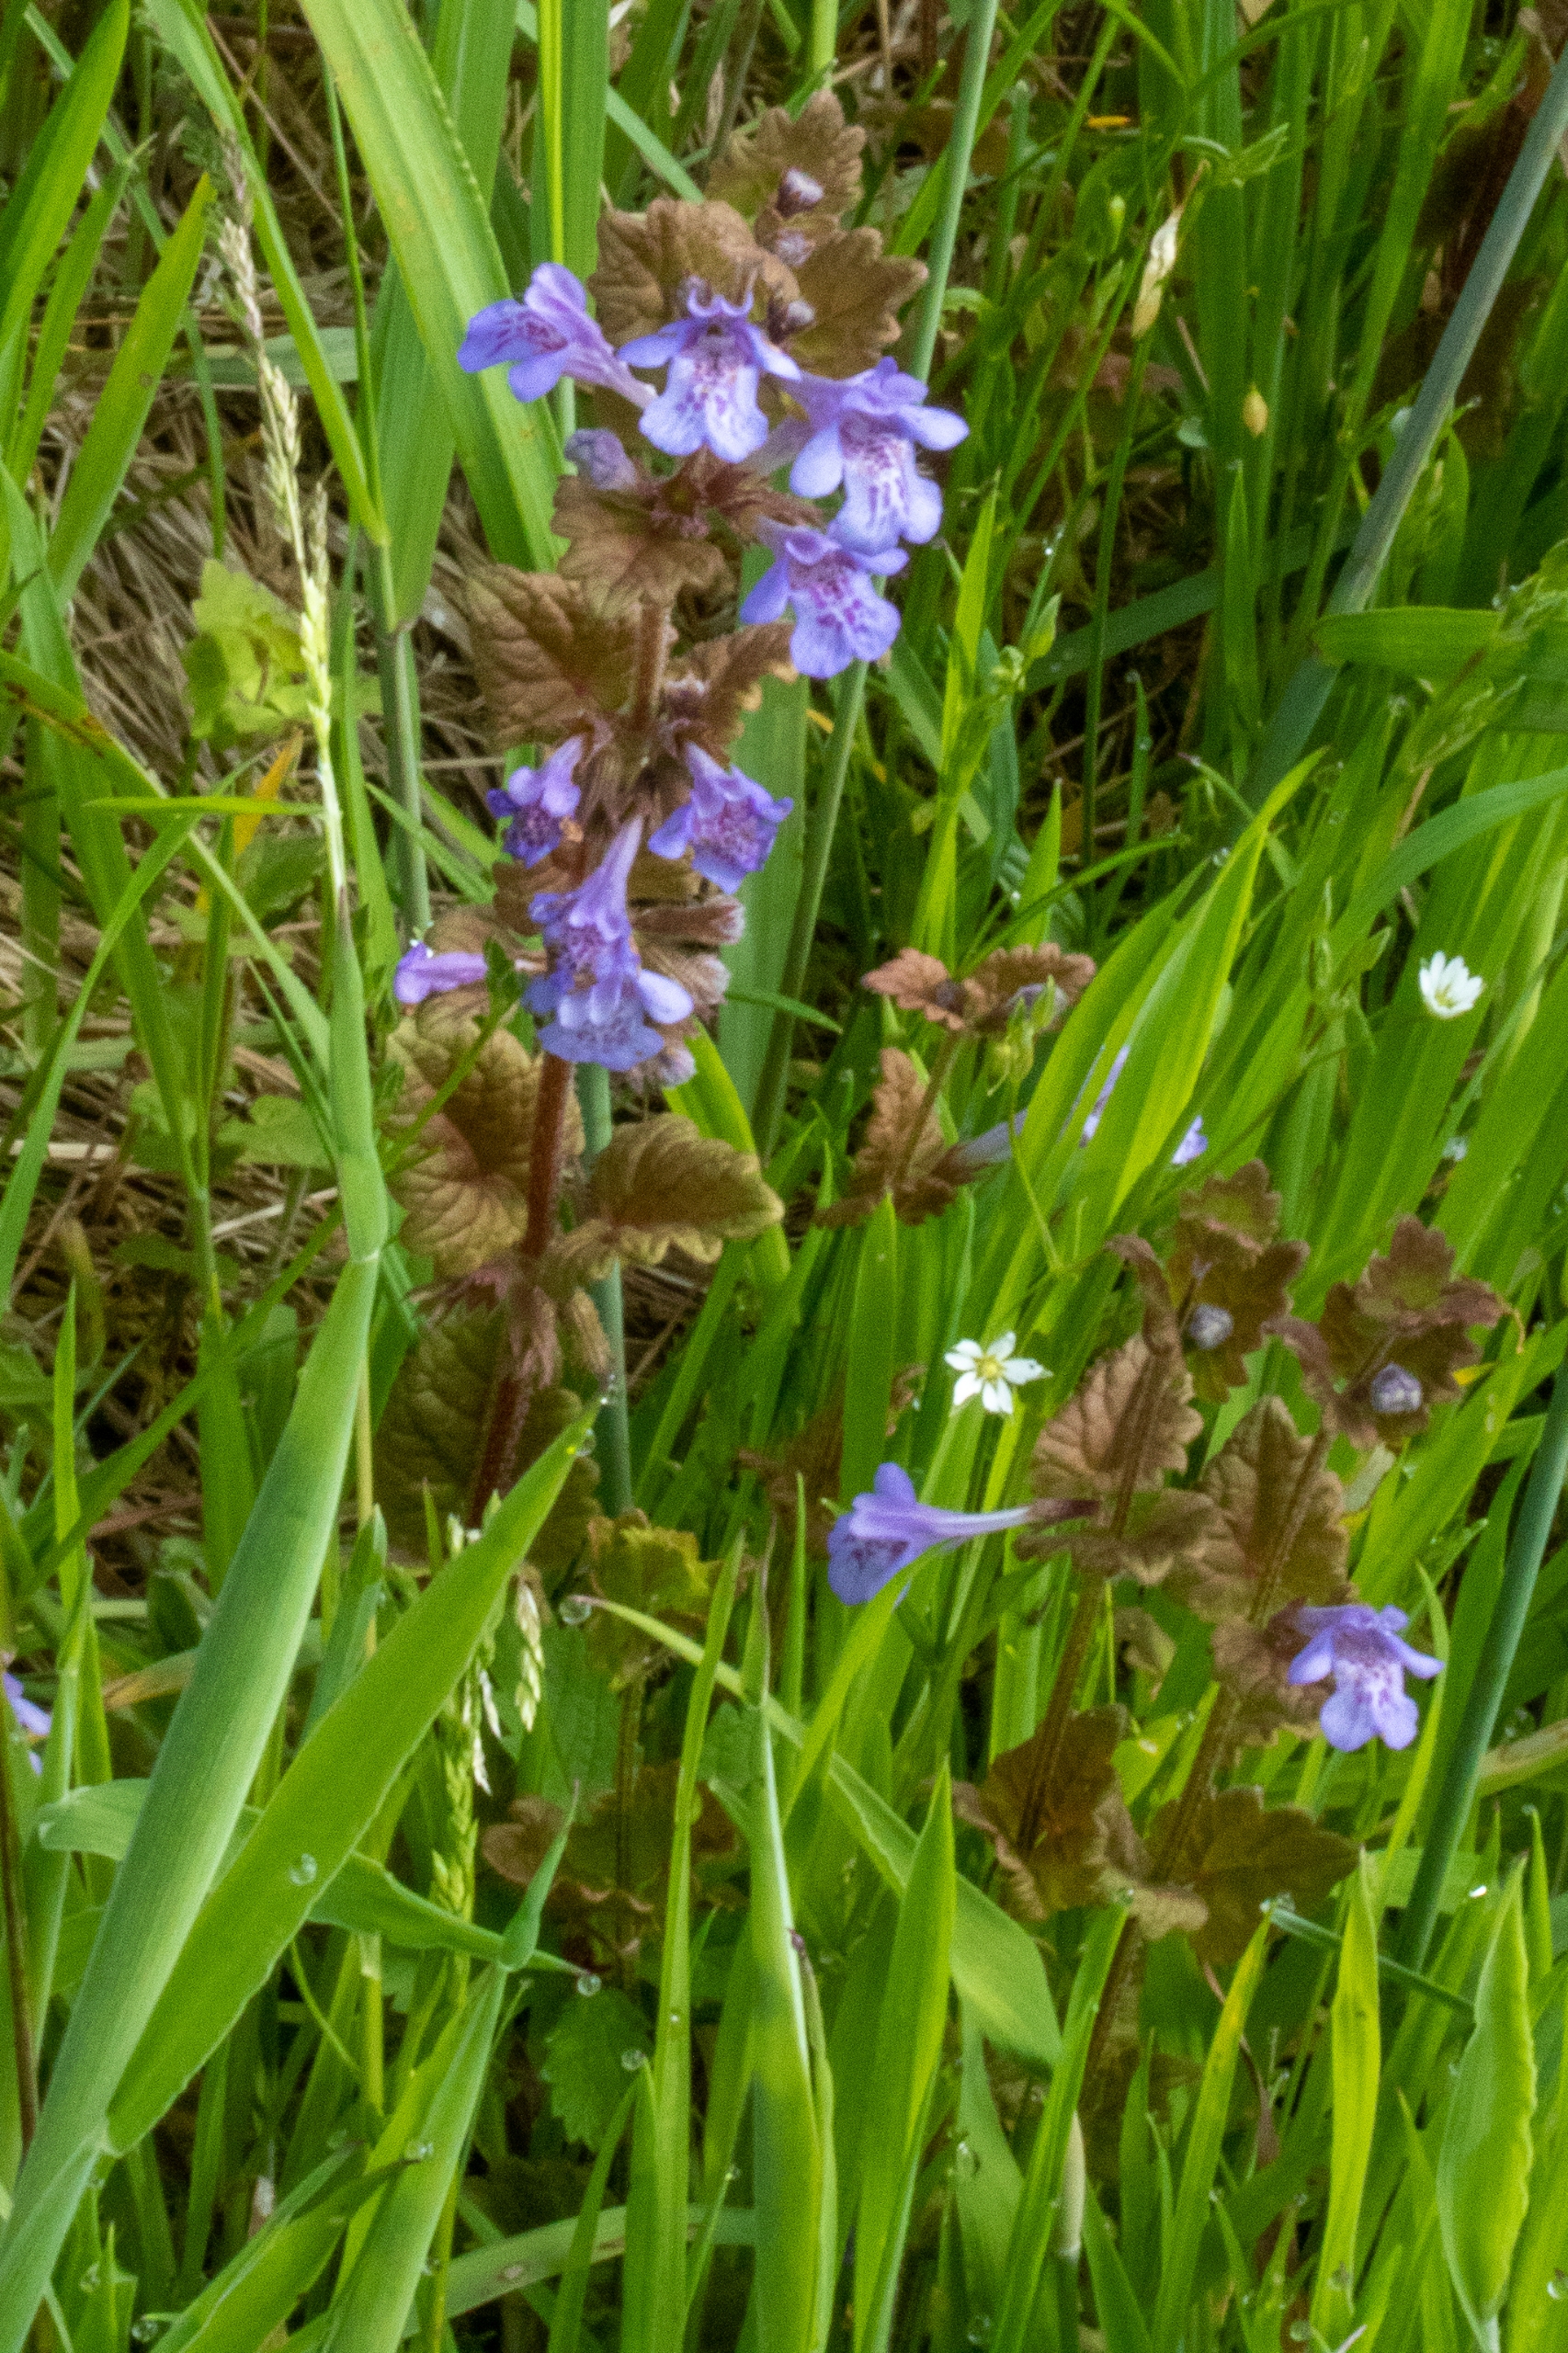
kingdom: Plantae
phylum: Tracheophyta
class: Magnoliopsida
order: Lamiales
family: Lamiaceae
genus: Glechoma
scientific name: Glechoma hederacea
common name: Korsknap
